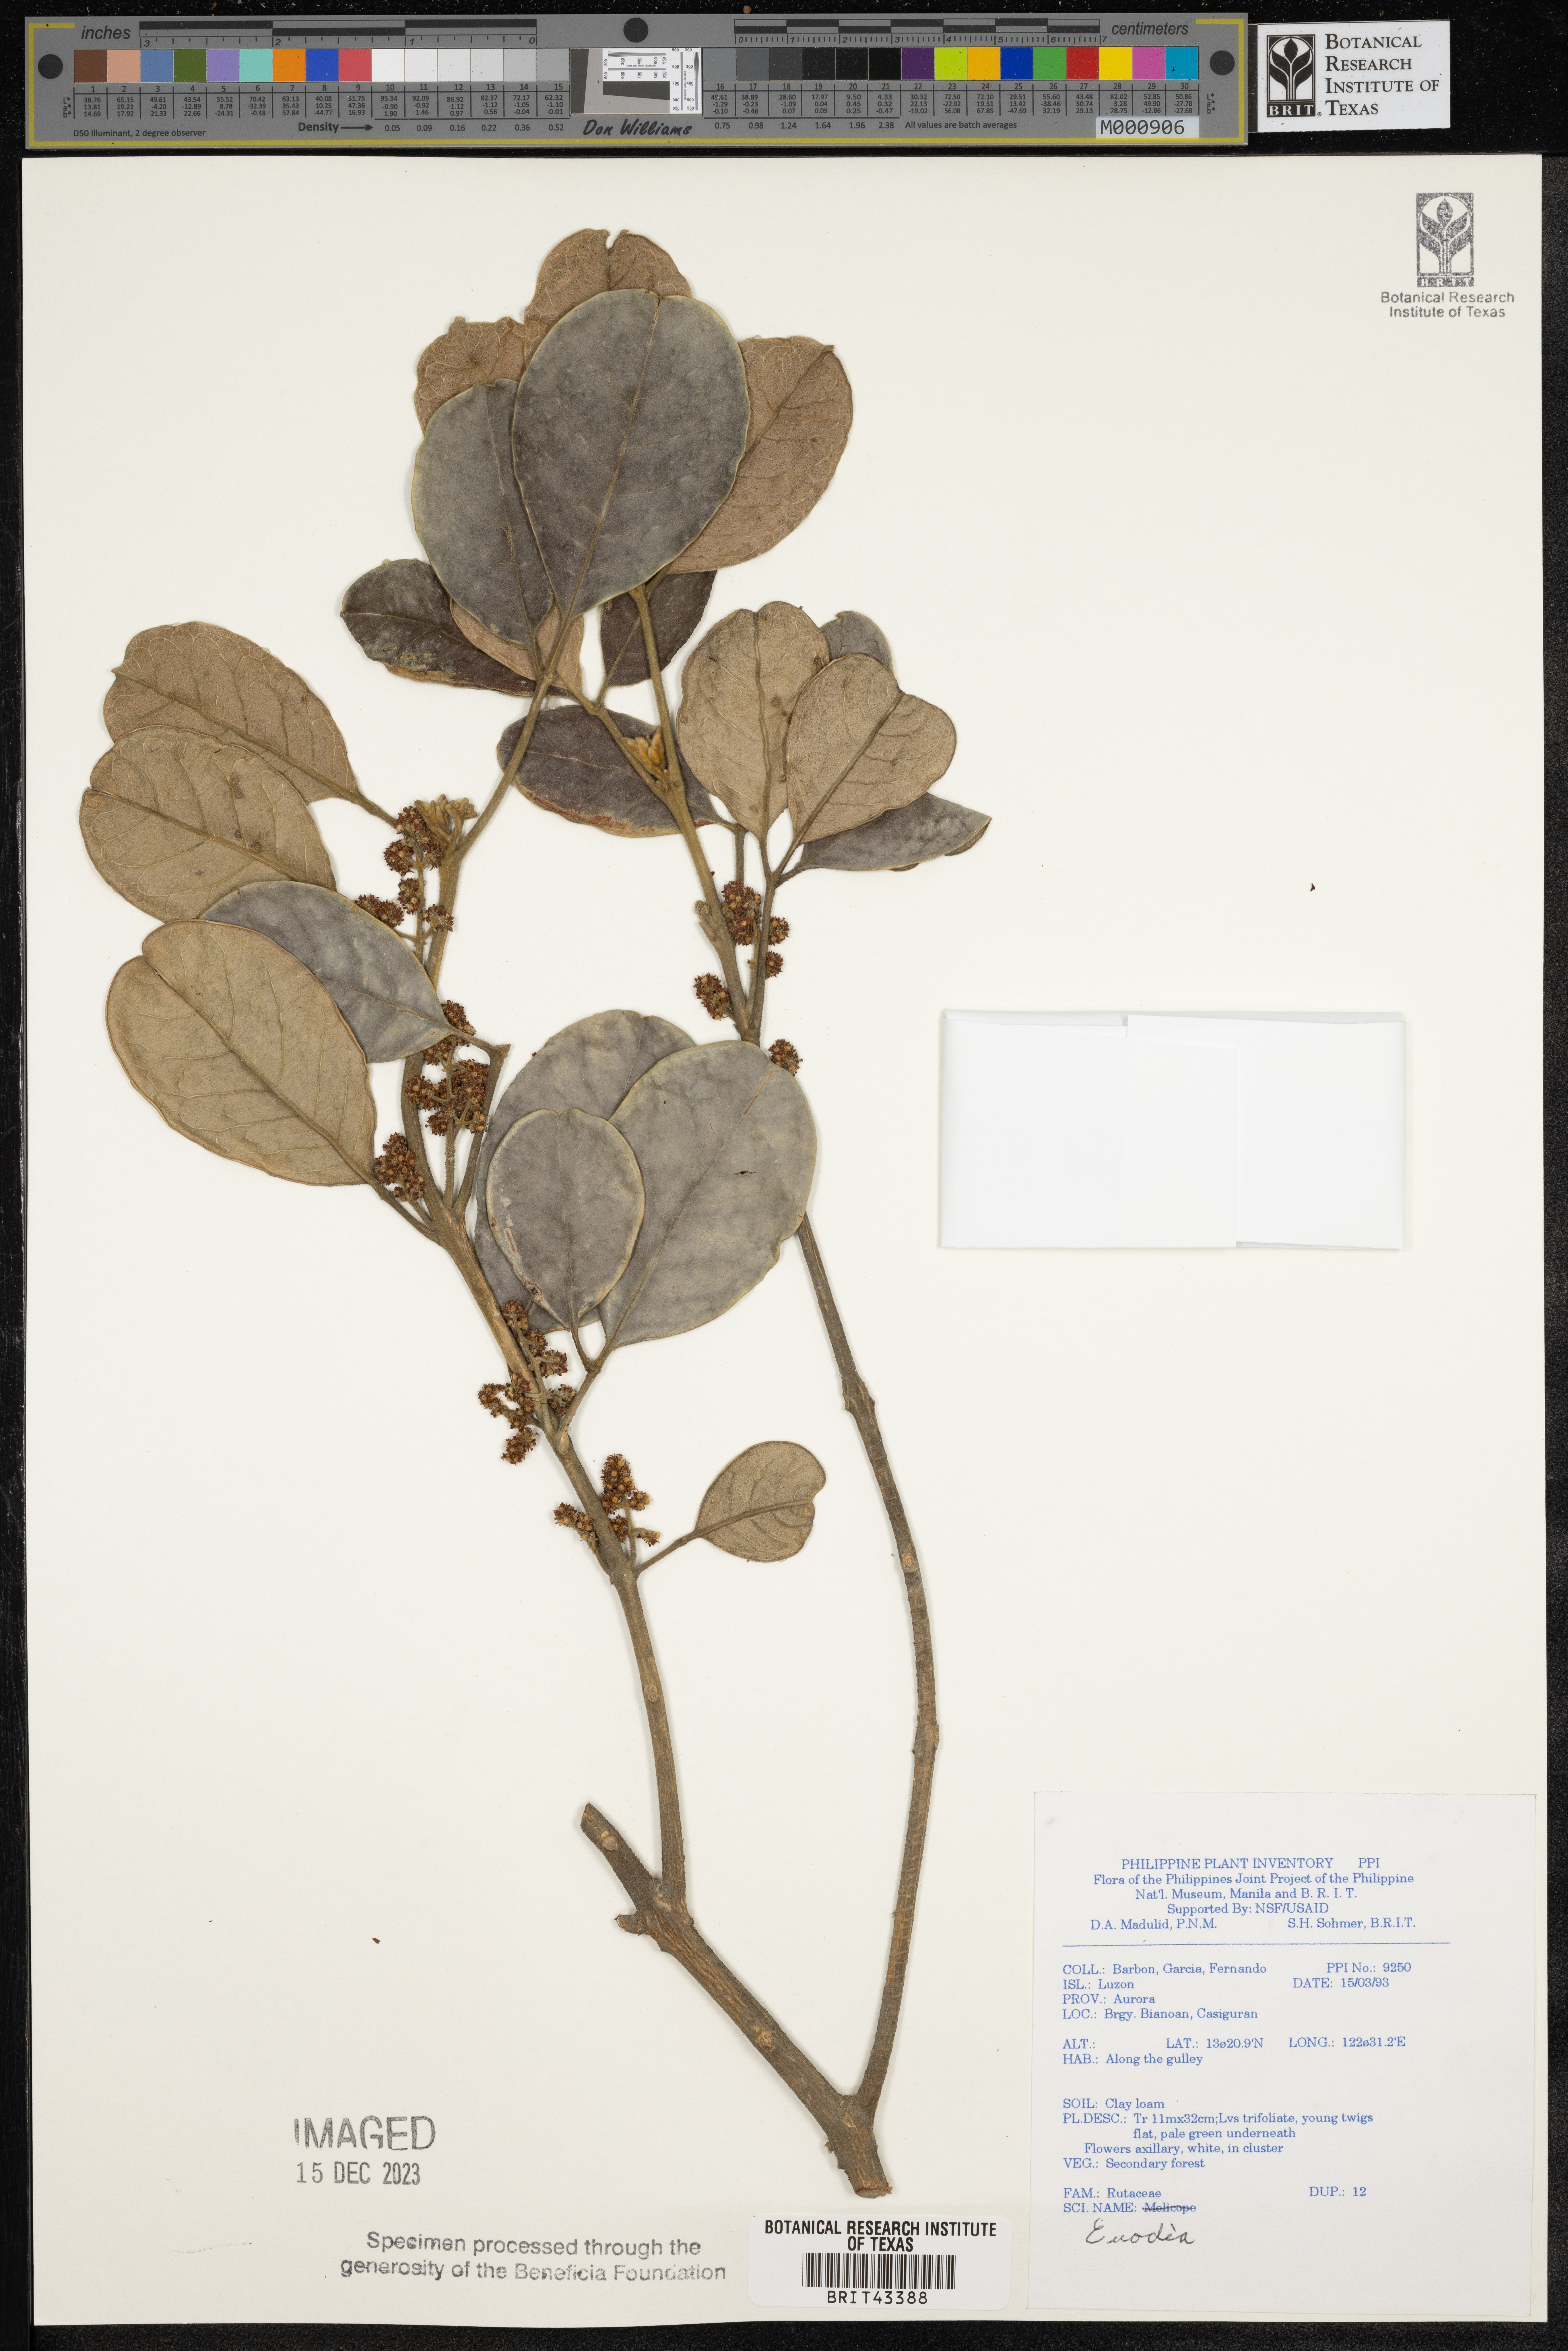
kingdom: Plantae
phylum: Tracheophyta
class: Magnoliopsida
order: Sapindales
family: Rutaceae
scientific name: Rutaceae
